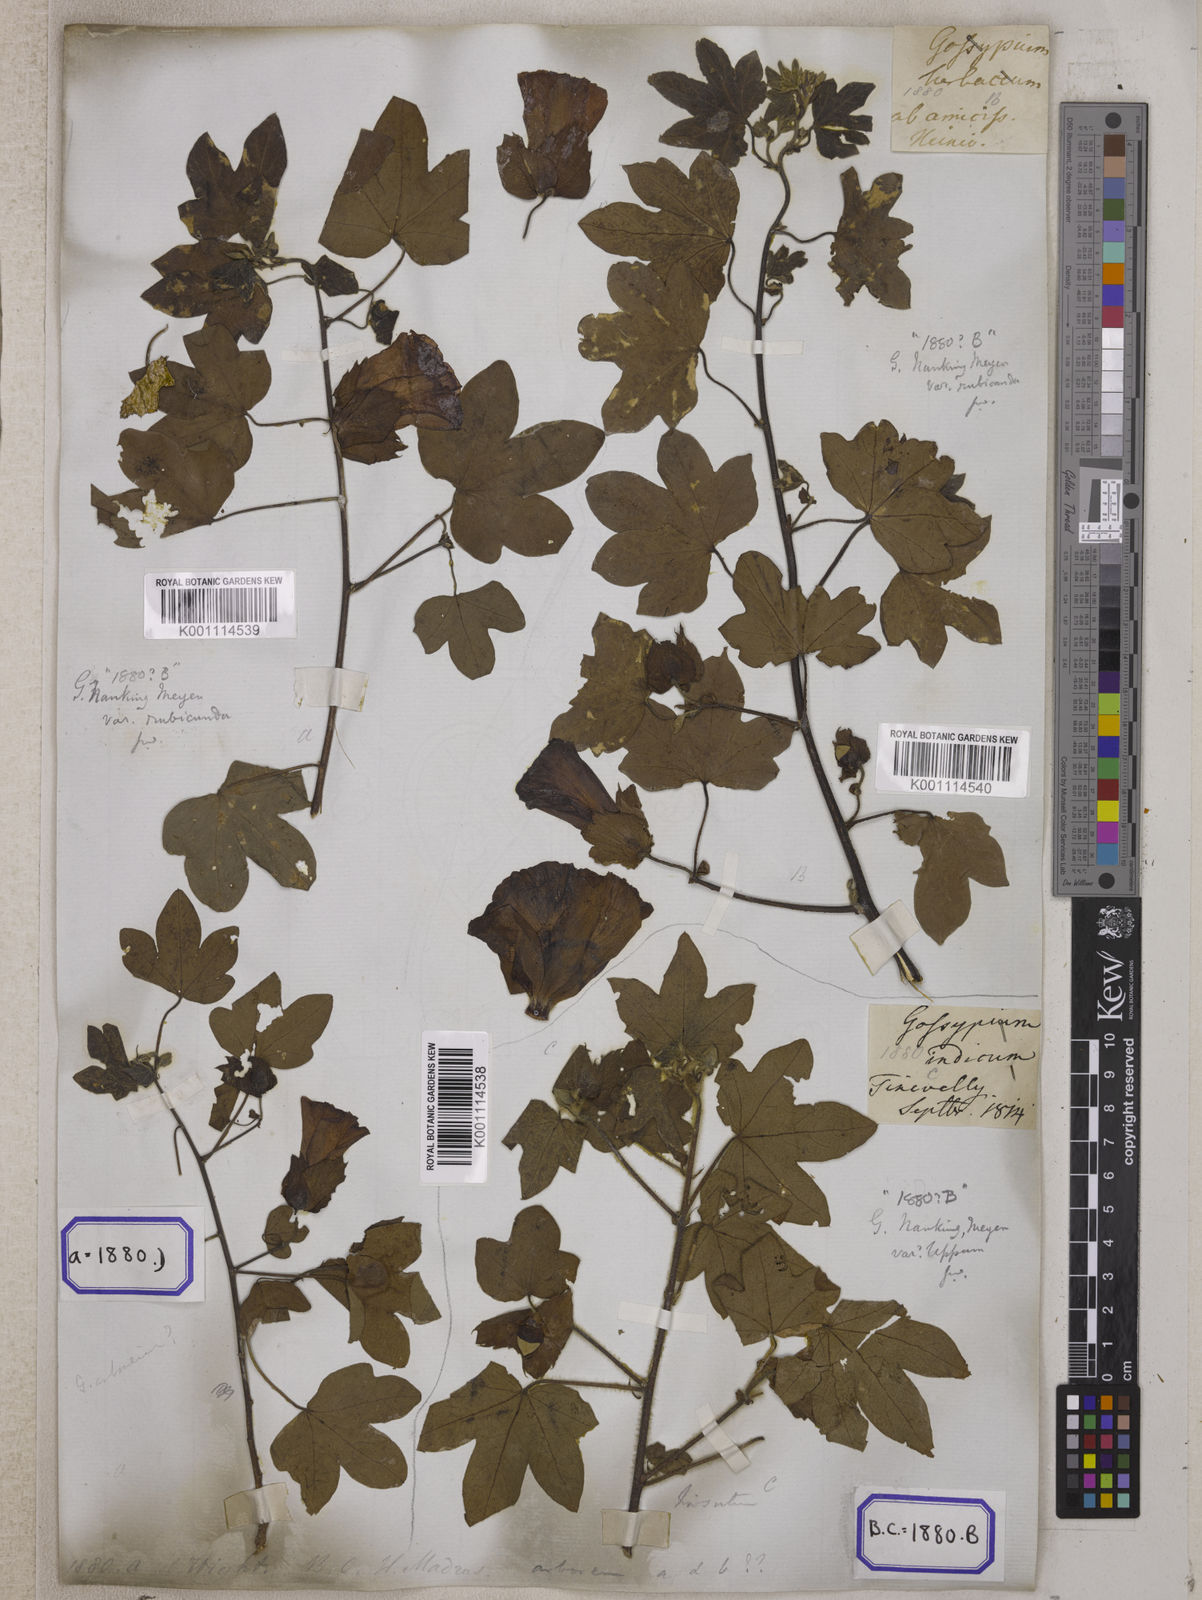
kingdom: Plantae
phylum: Tracheophyta
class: Magnoliopsida
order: Malvales
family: Malvaceae
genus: Gossypium
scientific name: Gossypium herbaceum
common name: Levant cotton
